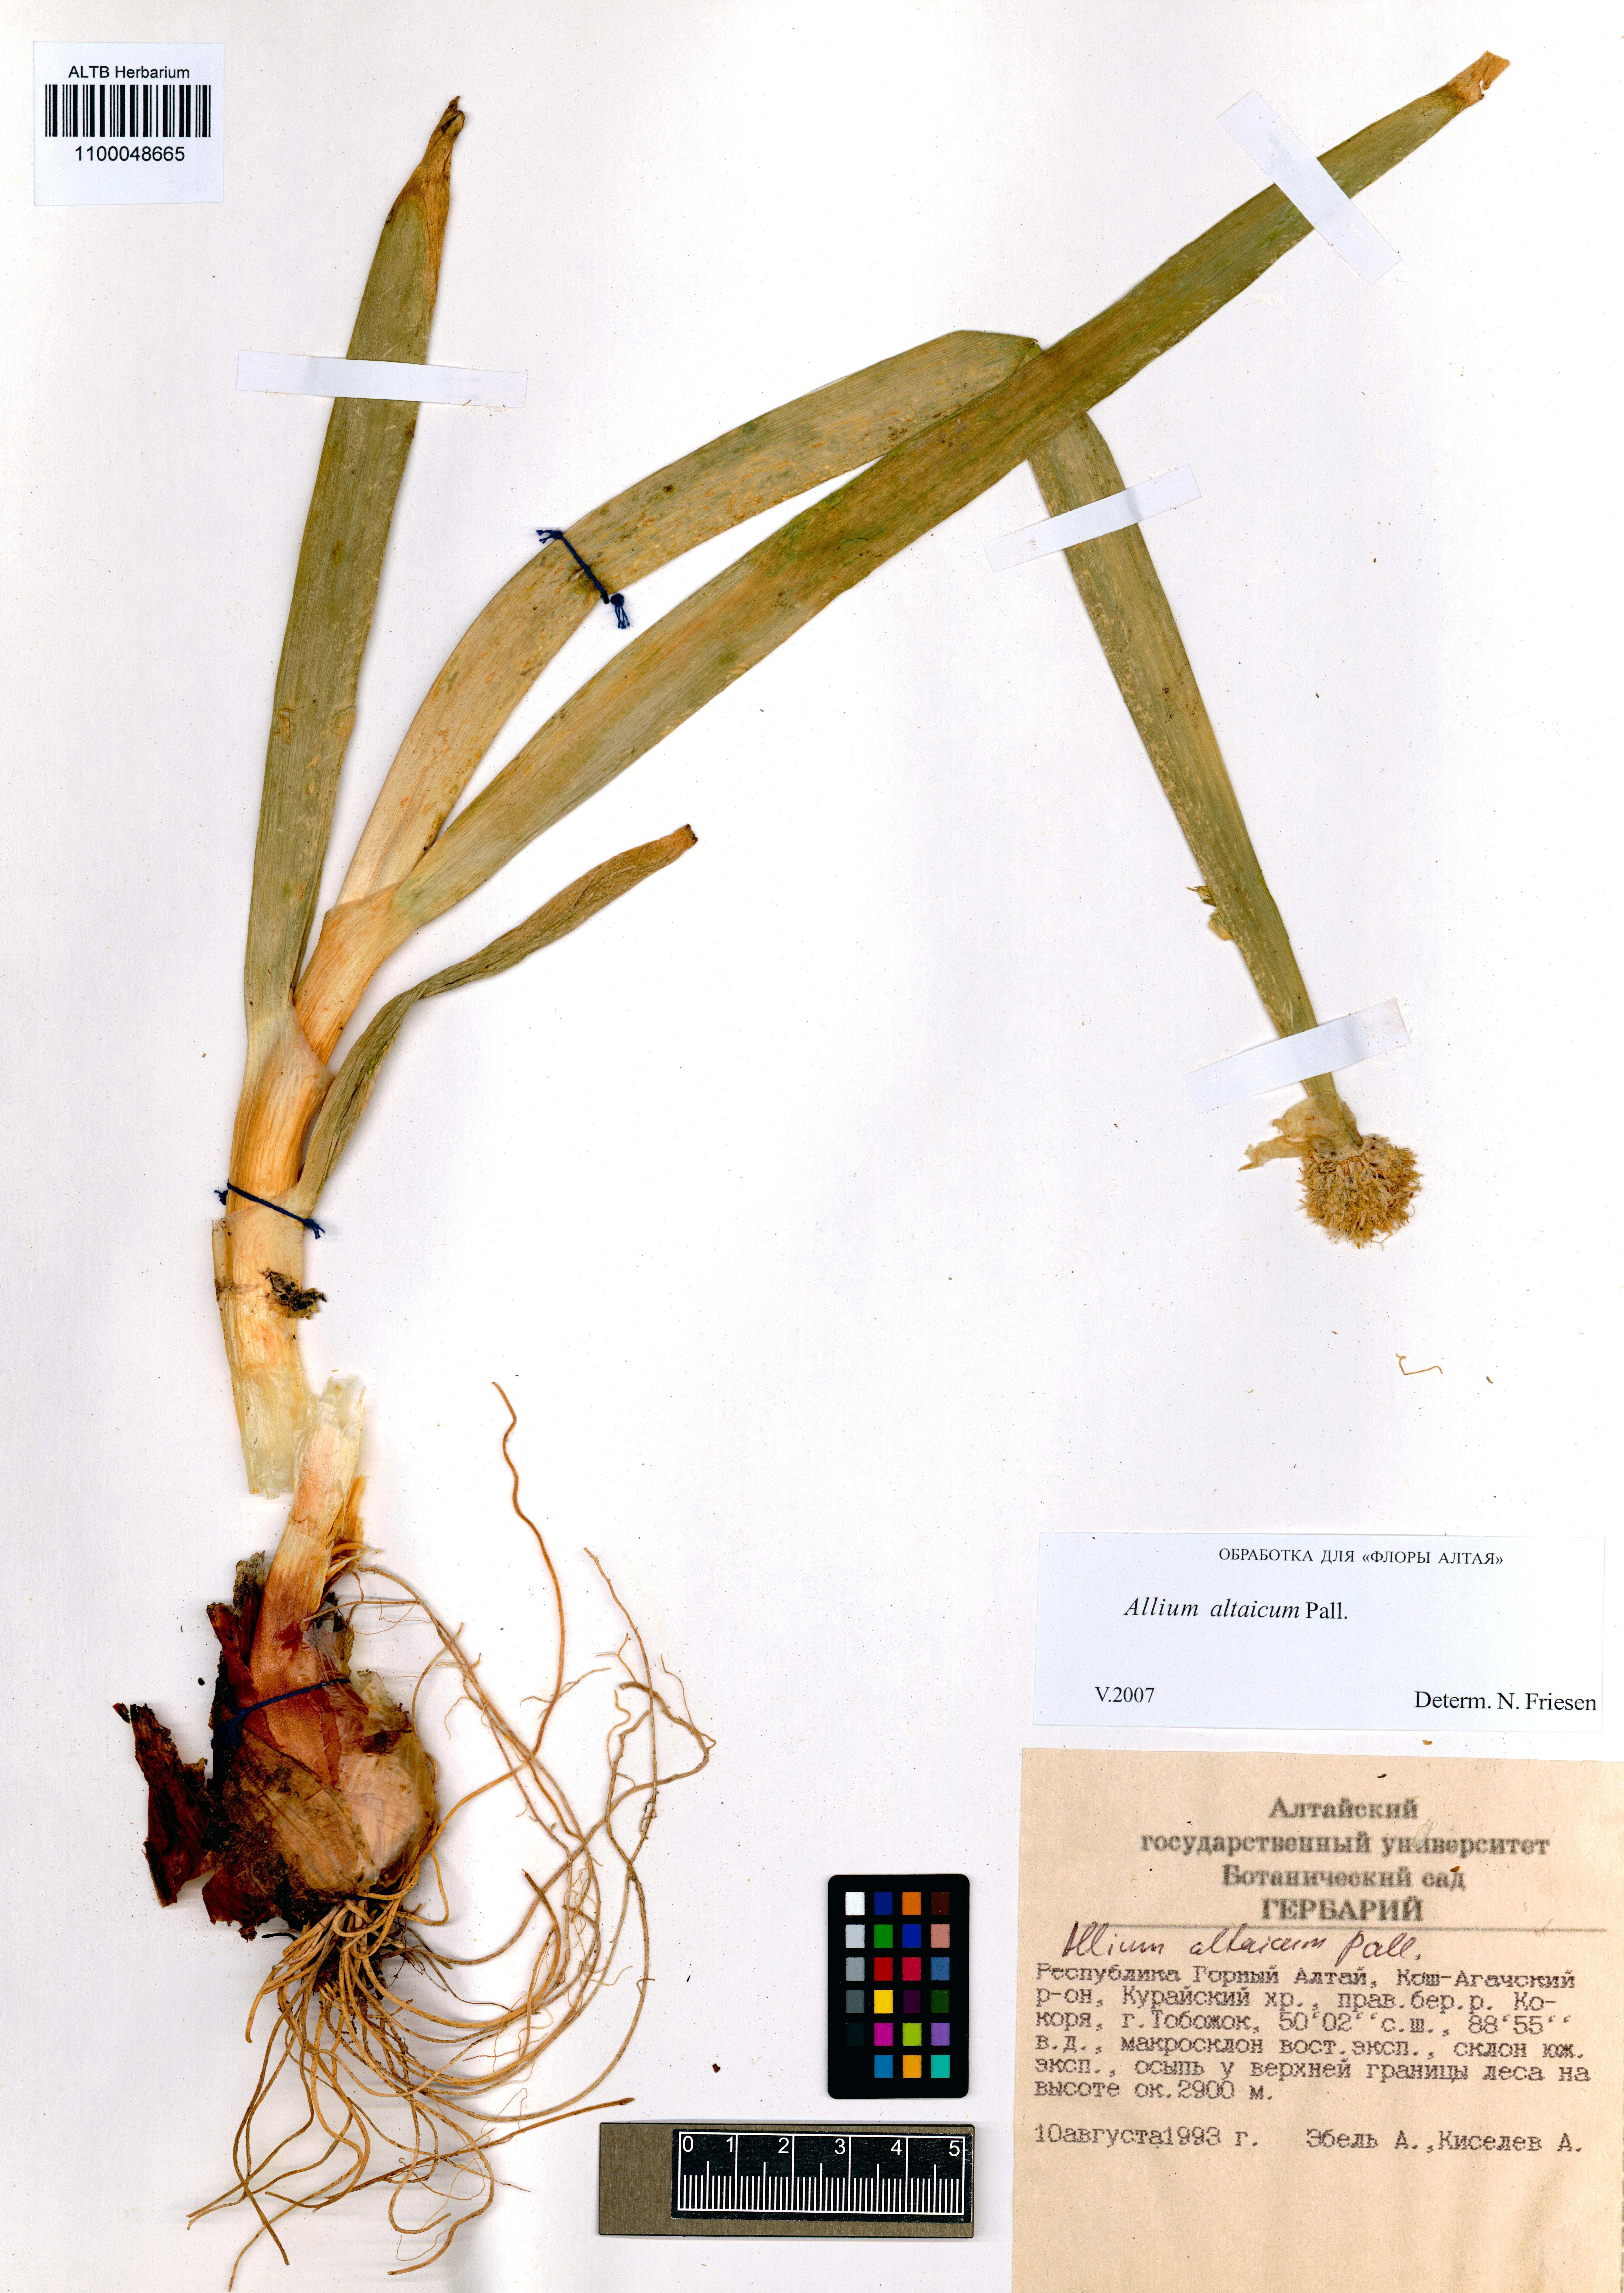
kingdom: Plantae
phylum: Tracheophyta
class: Liliopsida
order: Asparagales
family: Amaryllidaceae
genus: Allium
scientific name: Allium altaicum
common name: Altai onion
